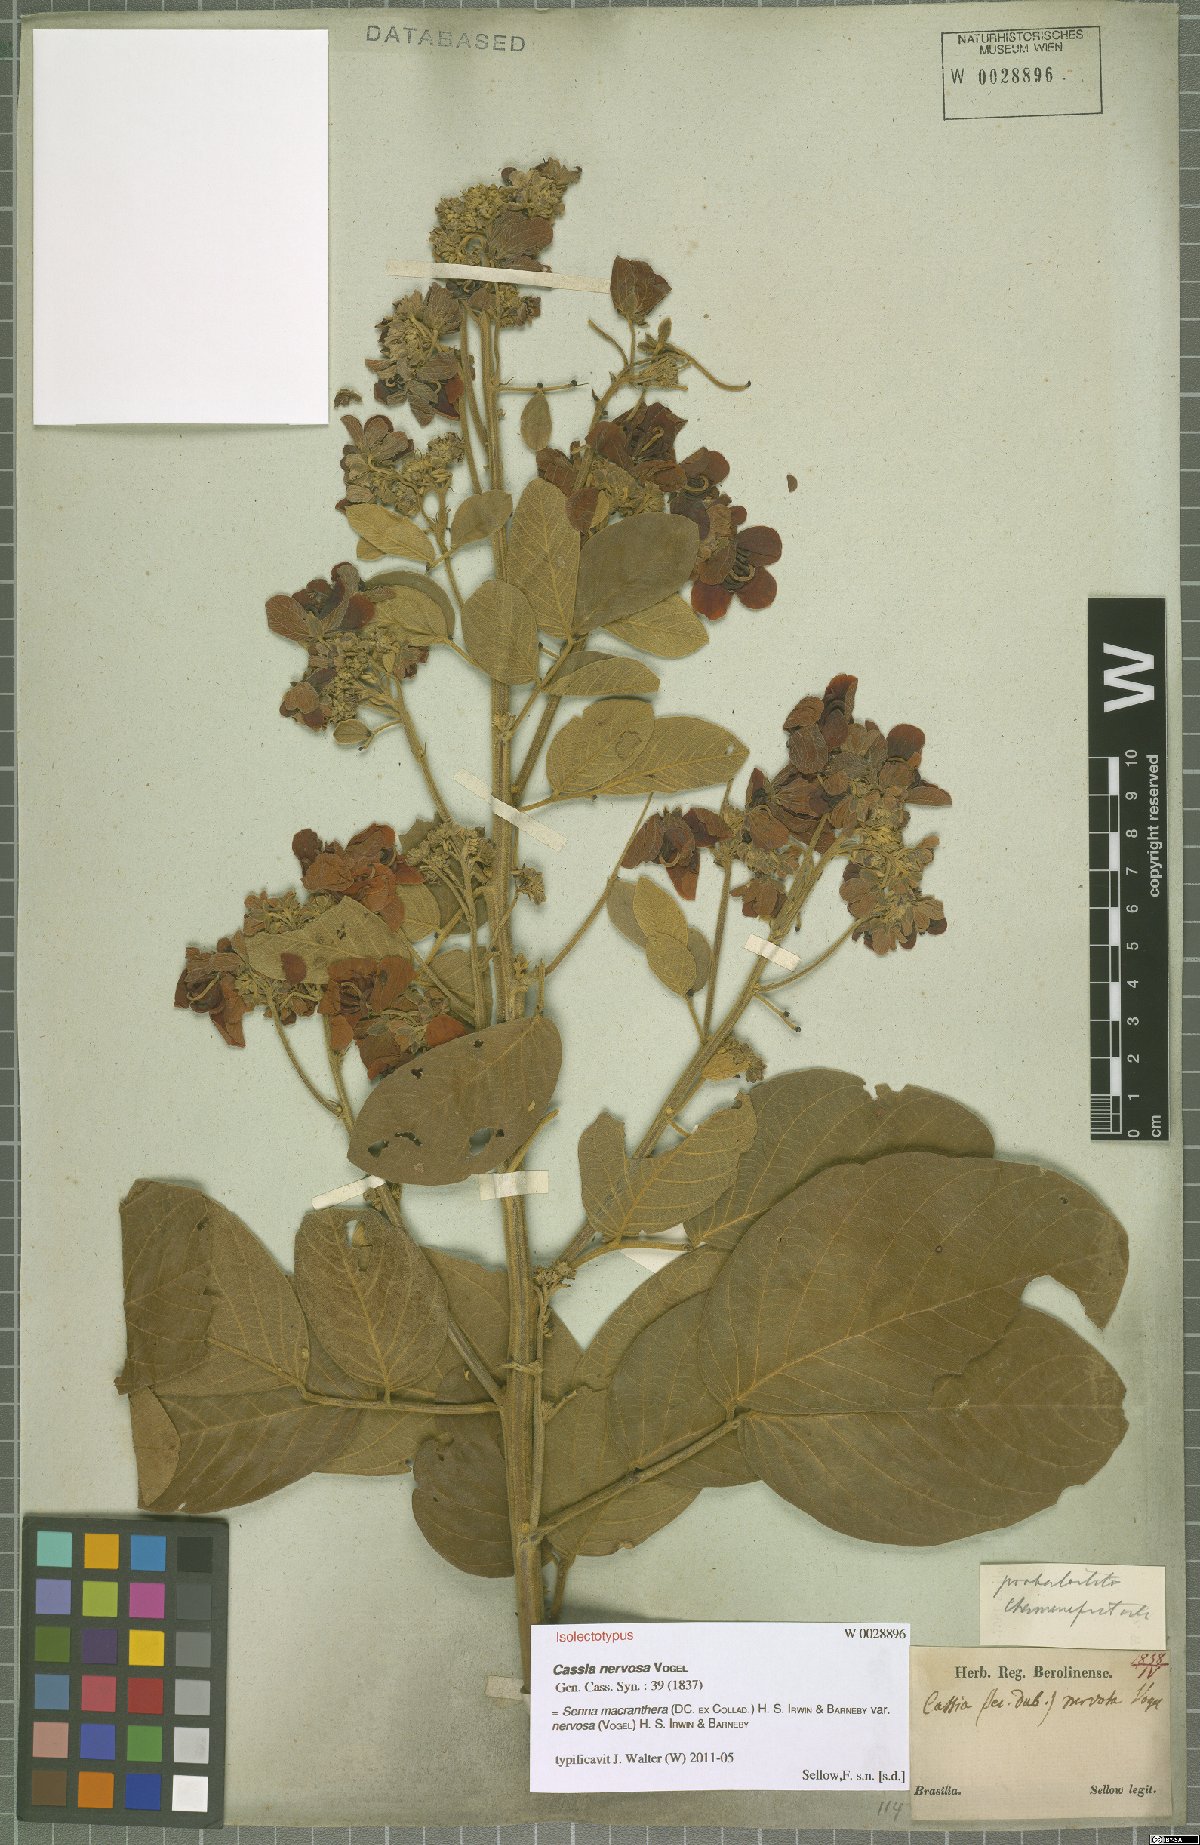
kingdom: Plantae
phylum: Tracheophyta
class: Magnoliopsida
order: Fabales
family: Fabaceae
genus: Senna
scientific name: Senna macranthera
